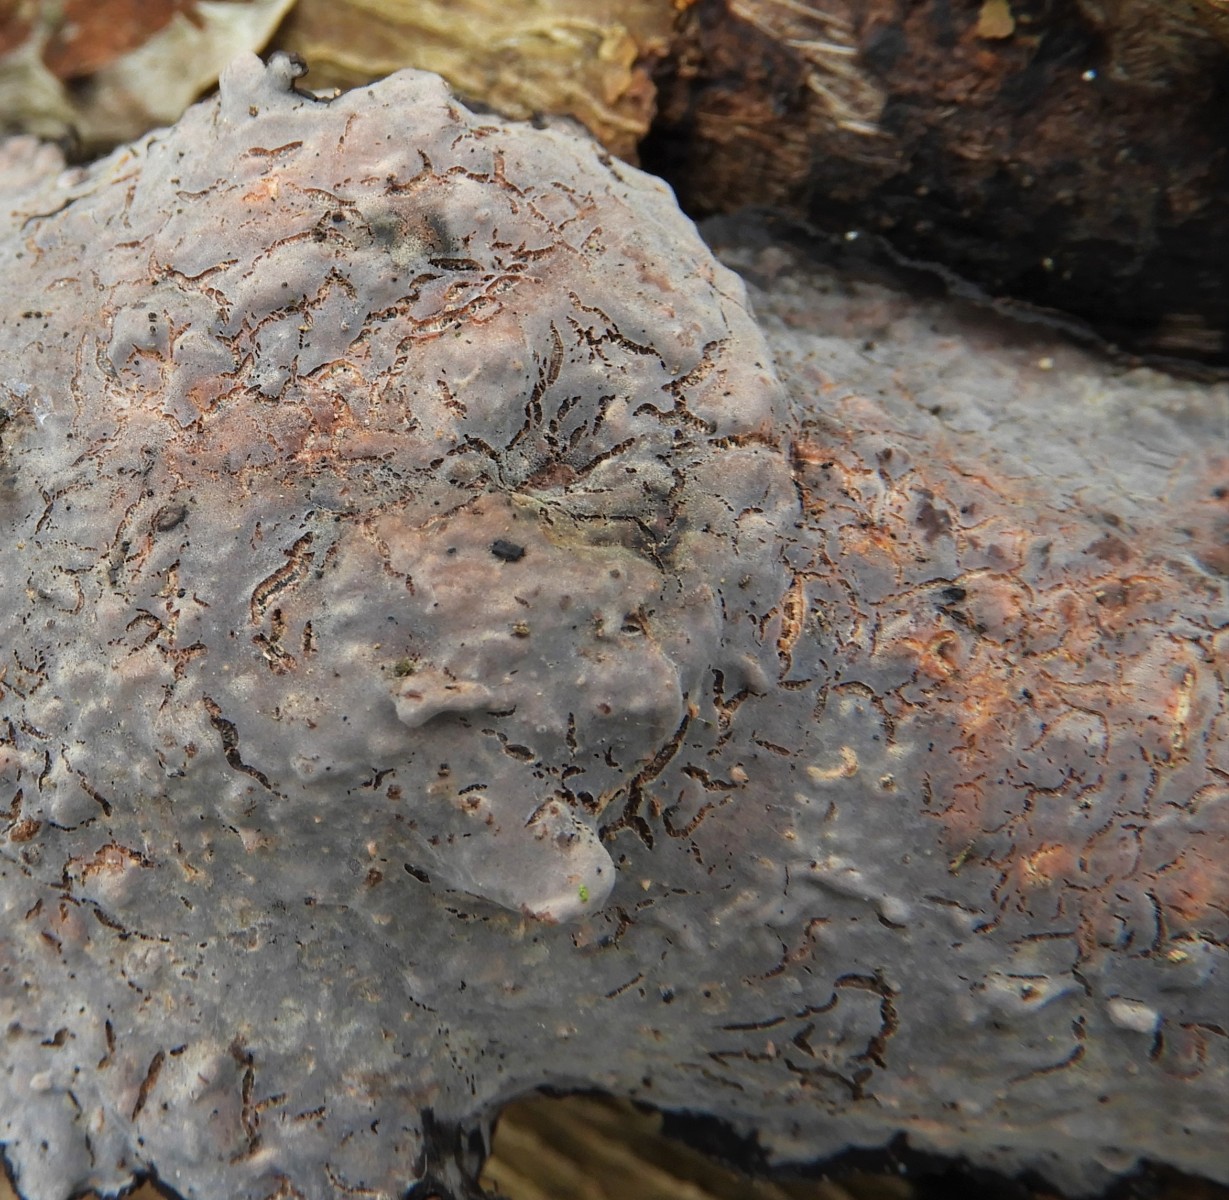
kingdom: Fungi
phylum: Basidiomycota
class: Agaricomycetes
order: Russulales
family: Peniophoraceae
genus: Peniophora
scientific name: Peniophora quercina
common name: ege-voksskind
